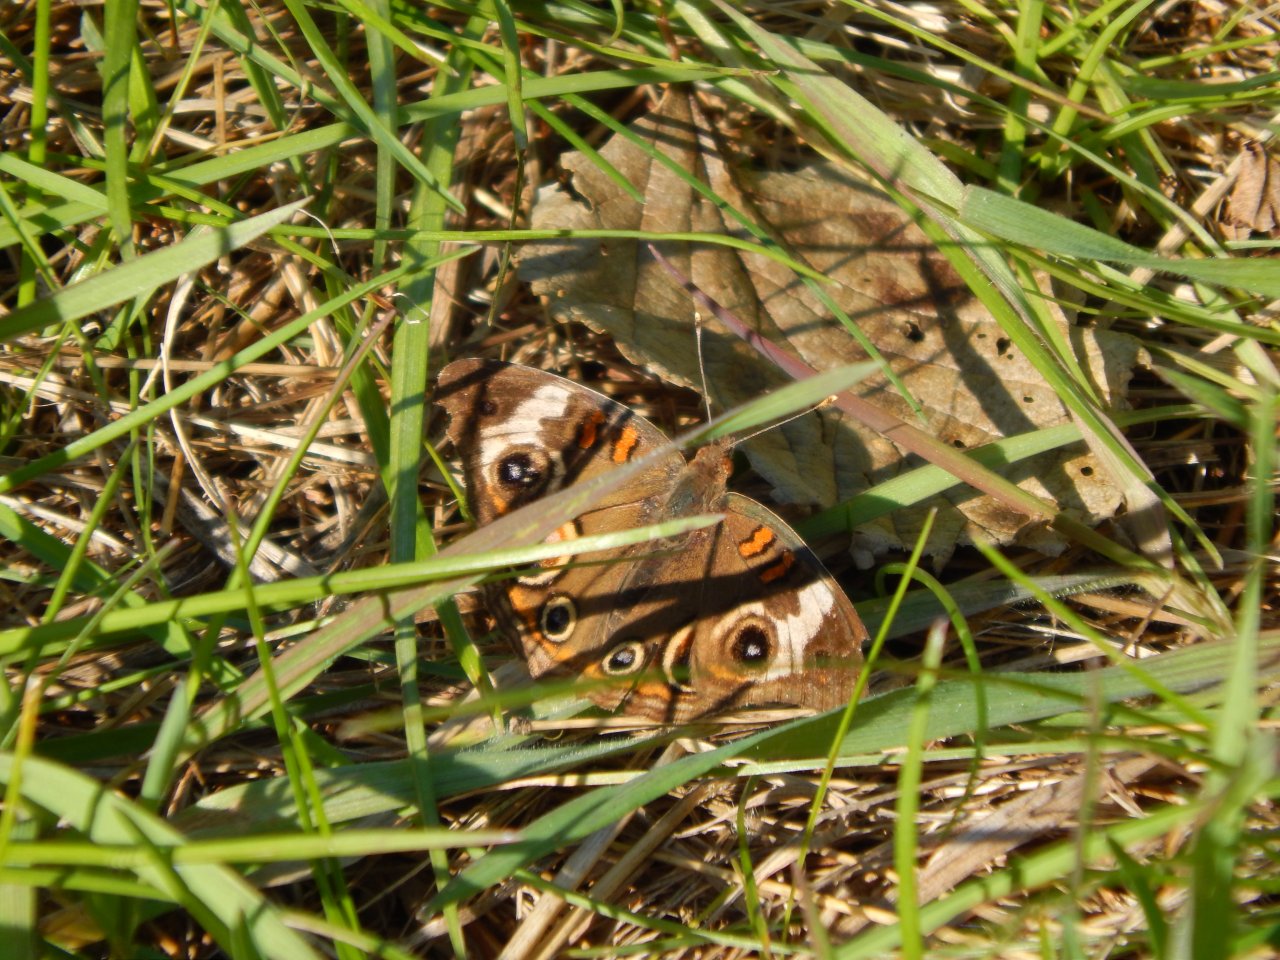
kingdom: Animalia
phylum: Arthropoda
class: Insecta
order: Lepidoptera
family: Nymphalidae
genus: Junonia
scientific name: Junonia coenia
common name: Common Buckeye
